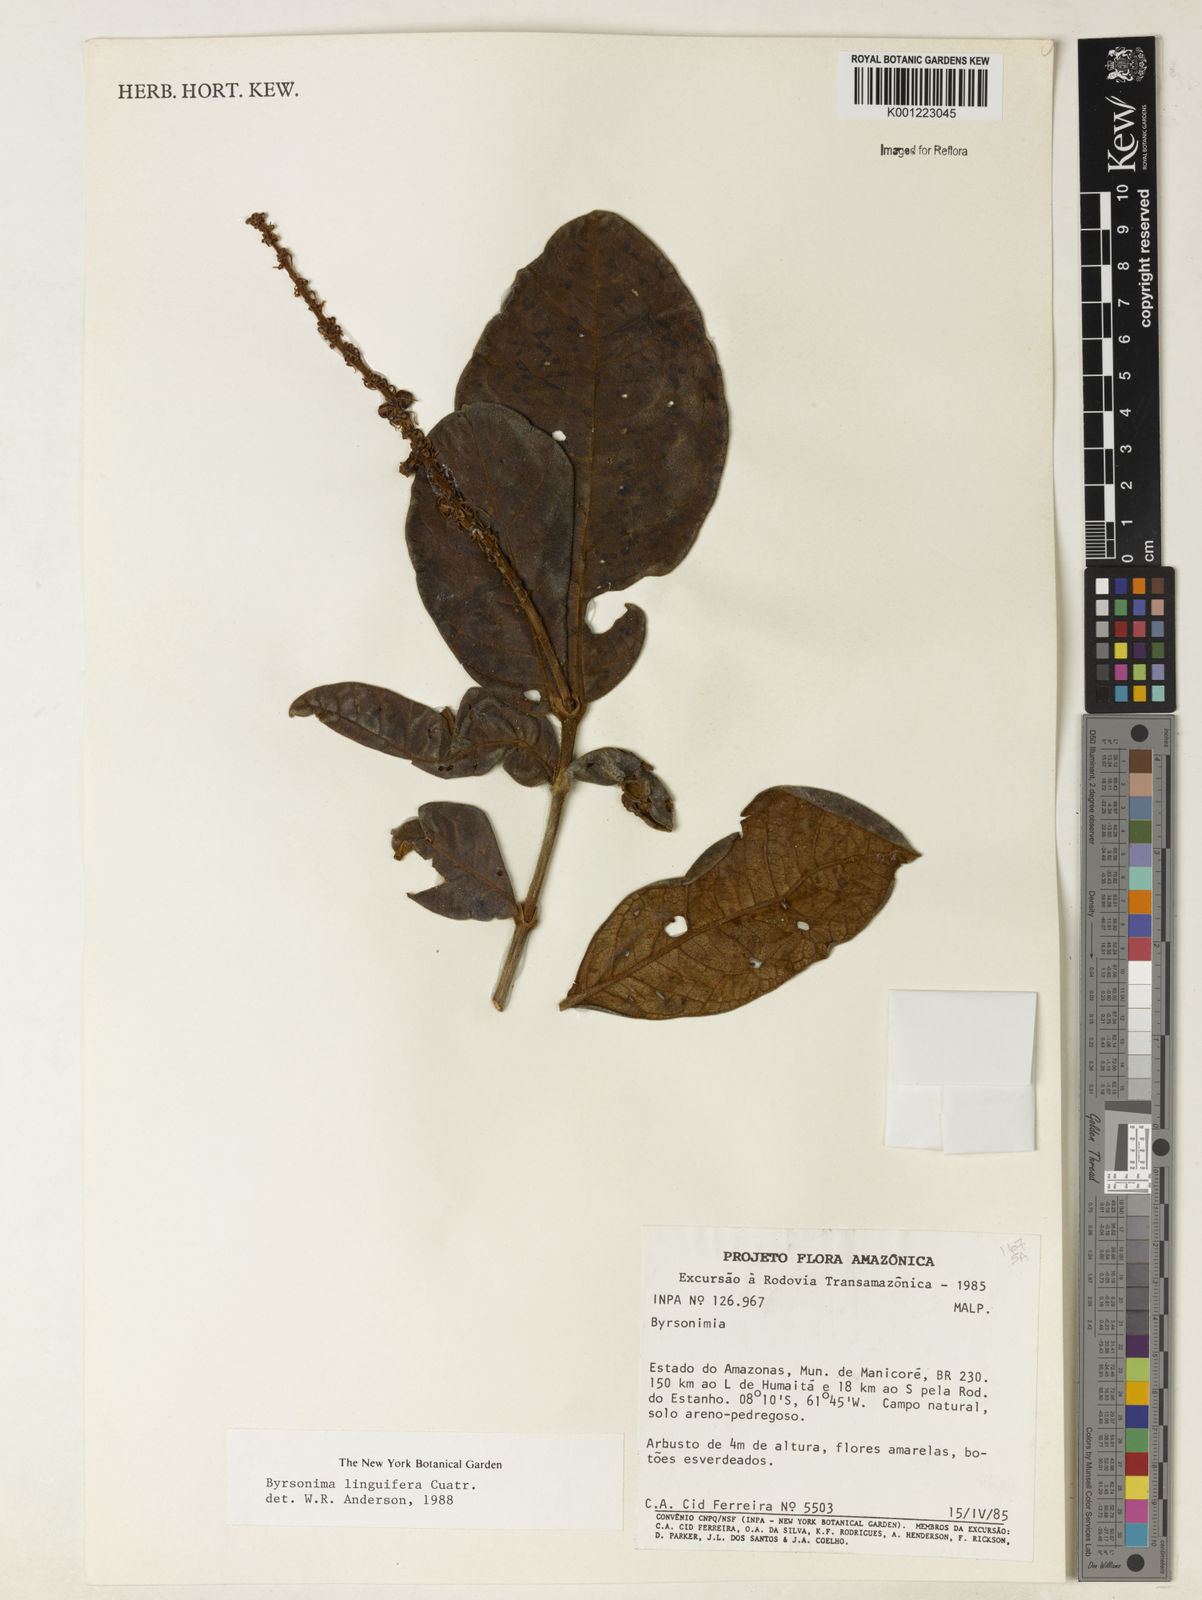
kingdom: Plantae
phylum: Tracheophyta
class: Magnoliopsida
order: Malpighiales
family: Malpighiaceae
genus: Byrsonima
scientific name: Byrsonima linguifera
